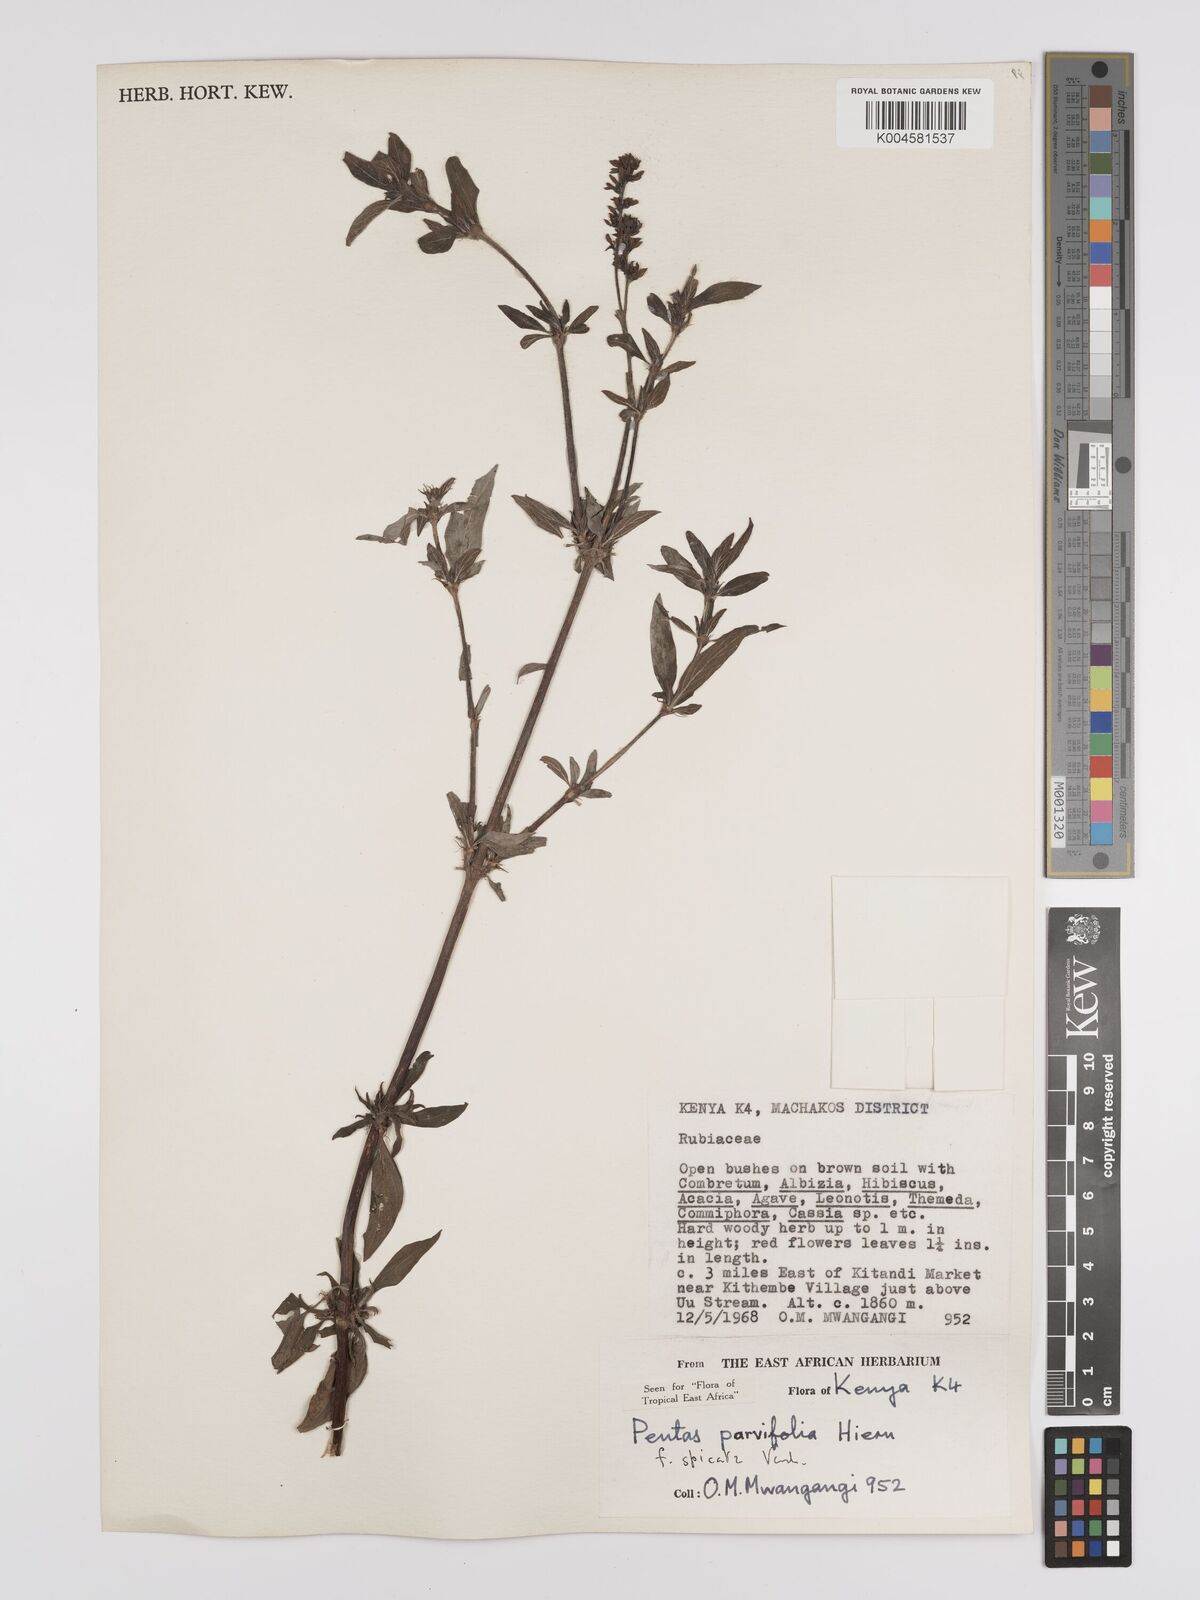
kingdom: Plantae
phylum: Tracheophyta
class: Magnoliopsida
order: Gentianales
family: Rubiaceae
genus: Rhodopentas
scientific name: Rhodopentas parvifolia
